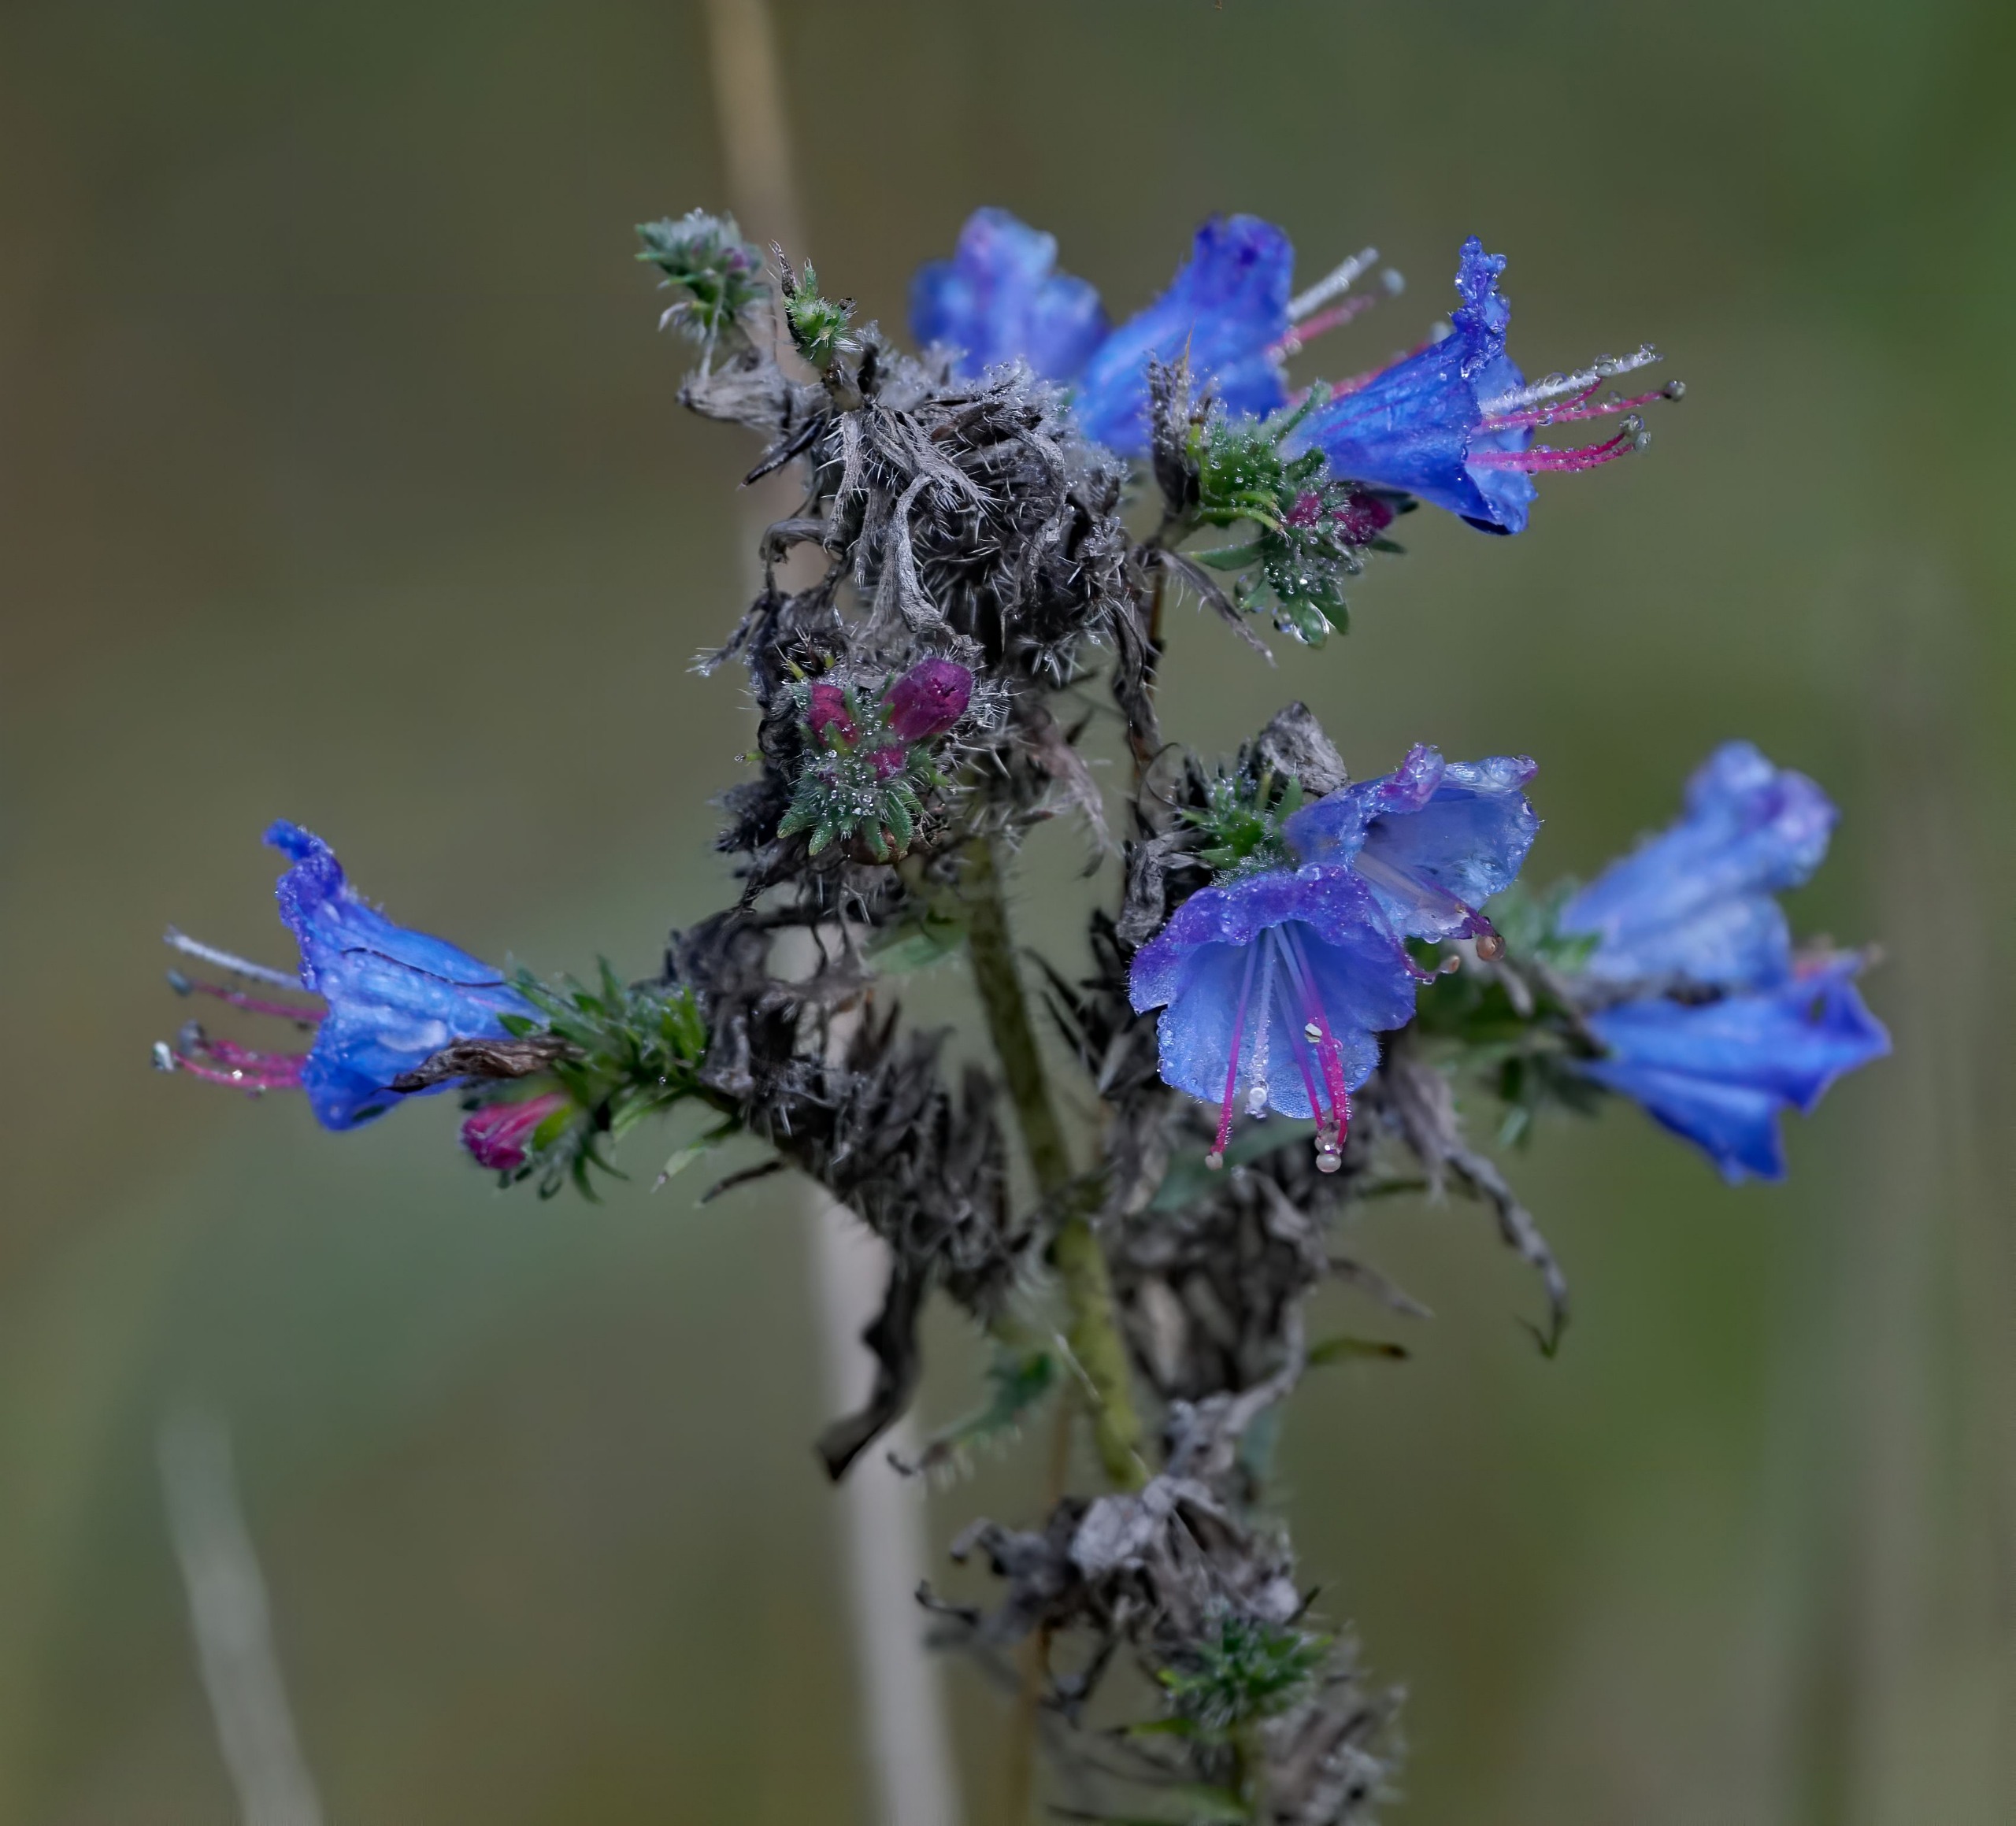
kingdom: Plantae
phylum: Tracheophyta
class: Magnoliopsida
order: Boraginales
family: Boraginaceae
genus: Echium
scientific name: Echium vulgare
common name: Slangehoved
